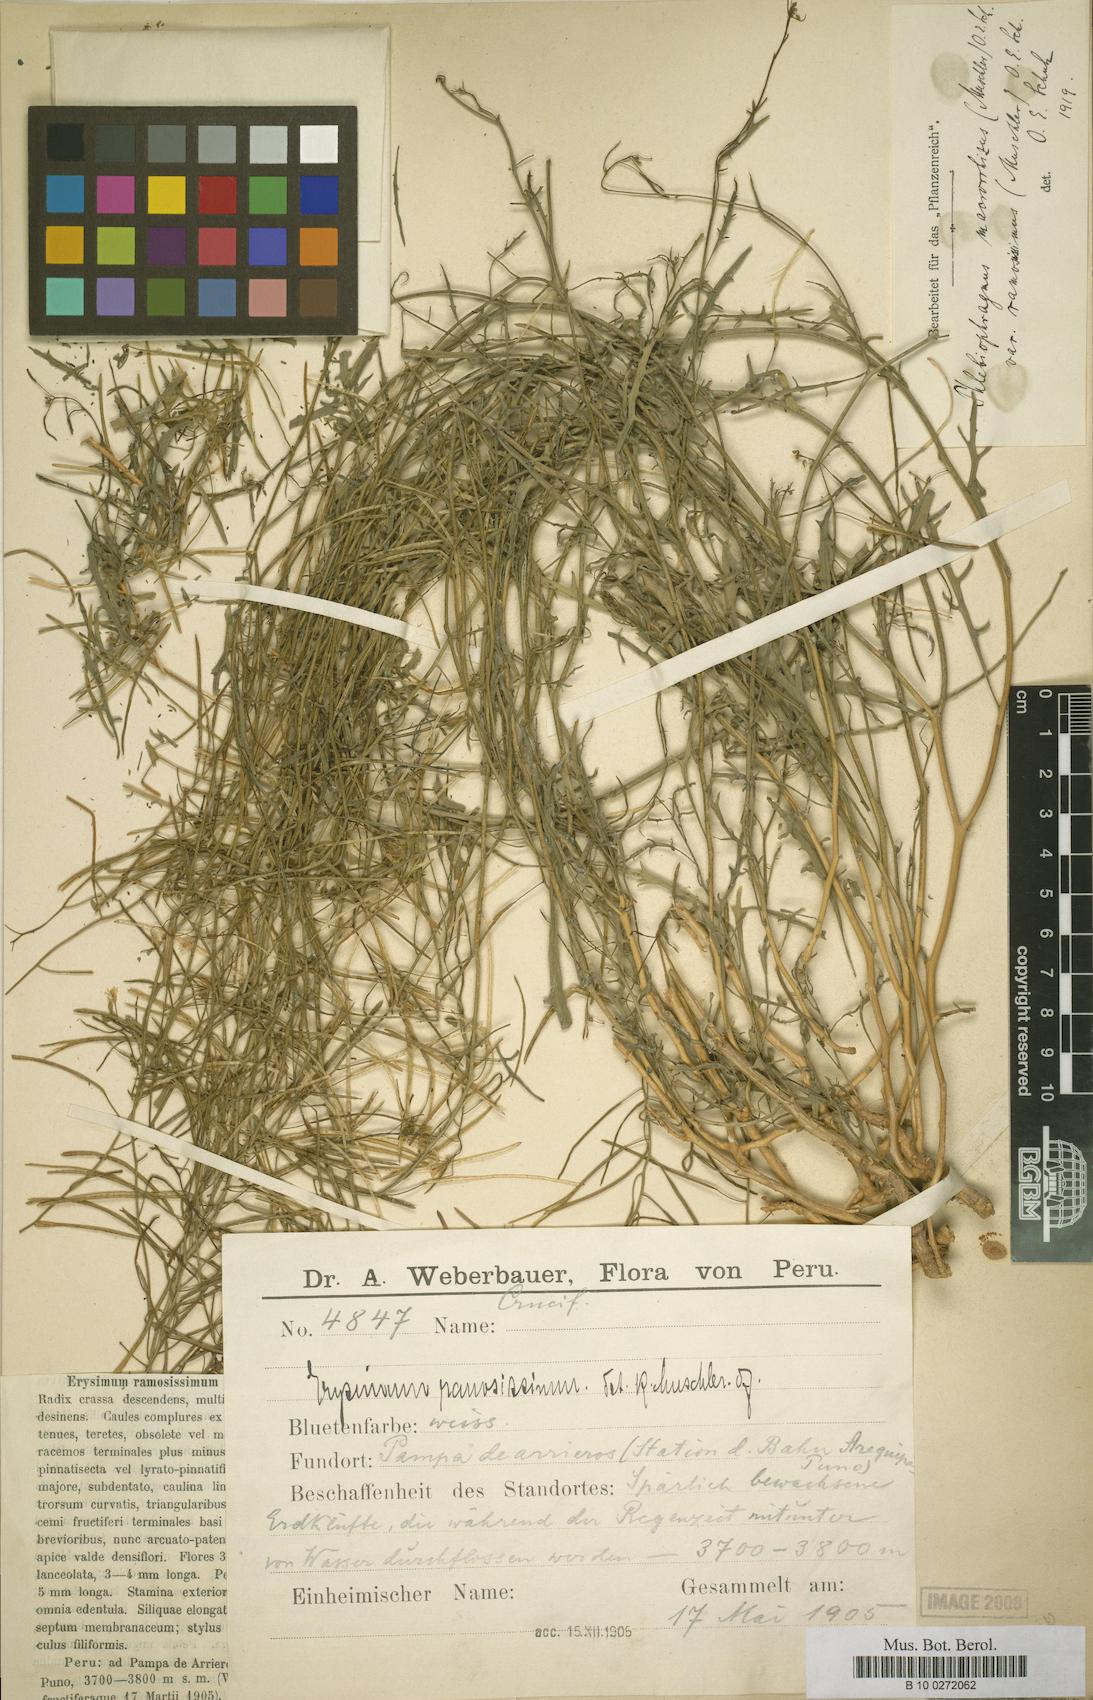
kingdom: Plantae
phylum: Tracheophyta
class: Magnoliopsida
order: Brassicales
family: Brassicaceae
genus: Mostacillastrum
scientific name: Mostacillastrum gracile
